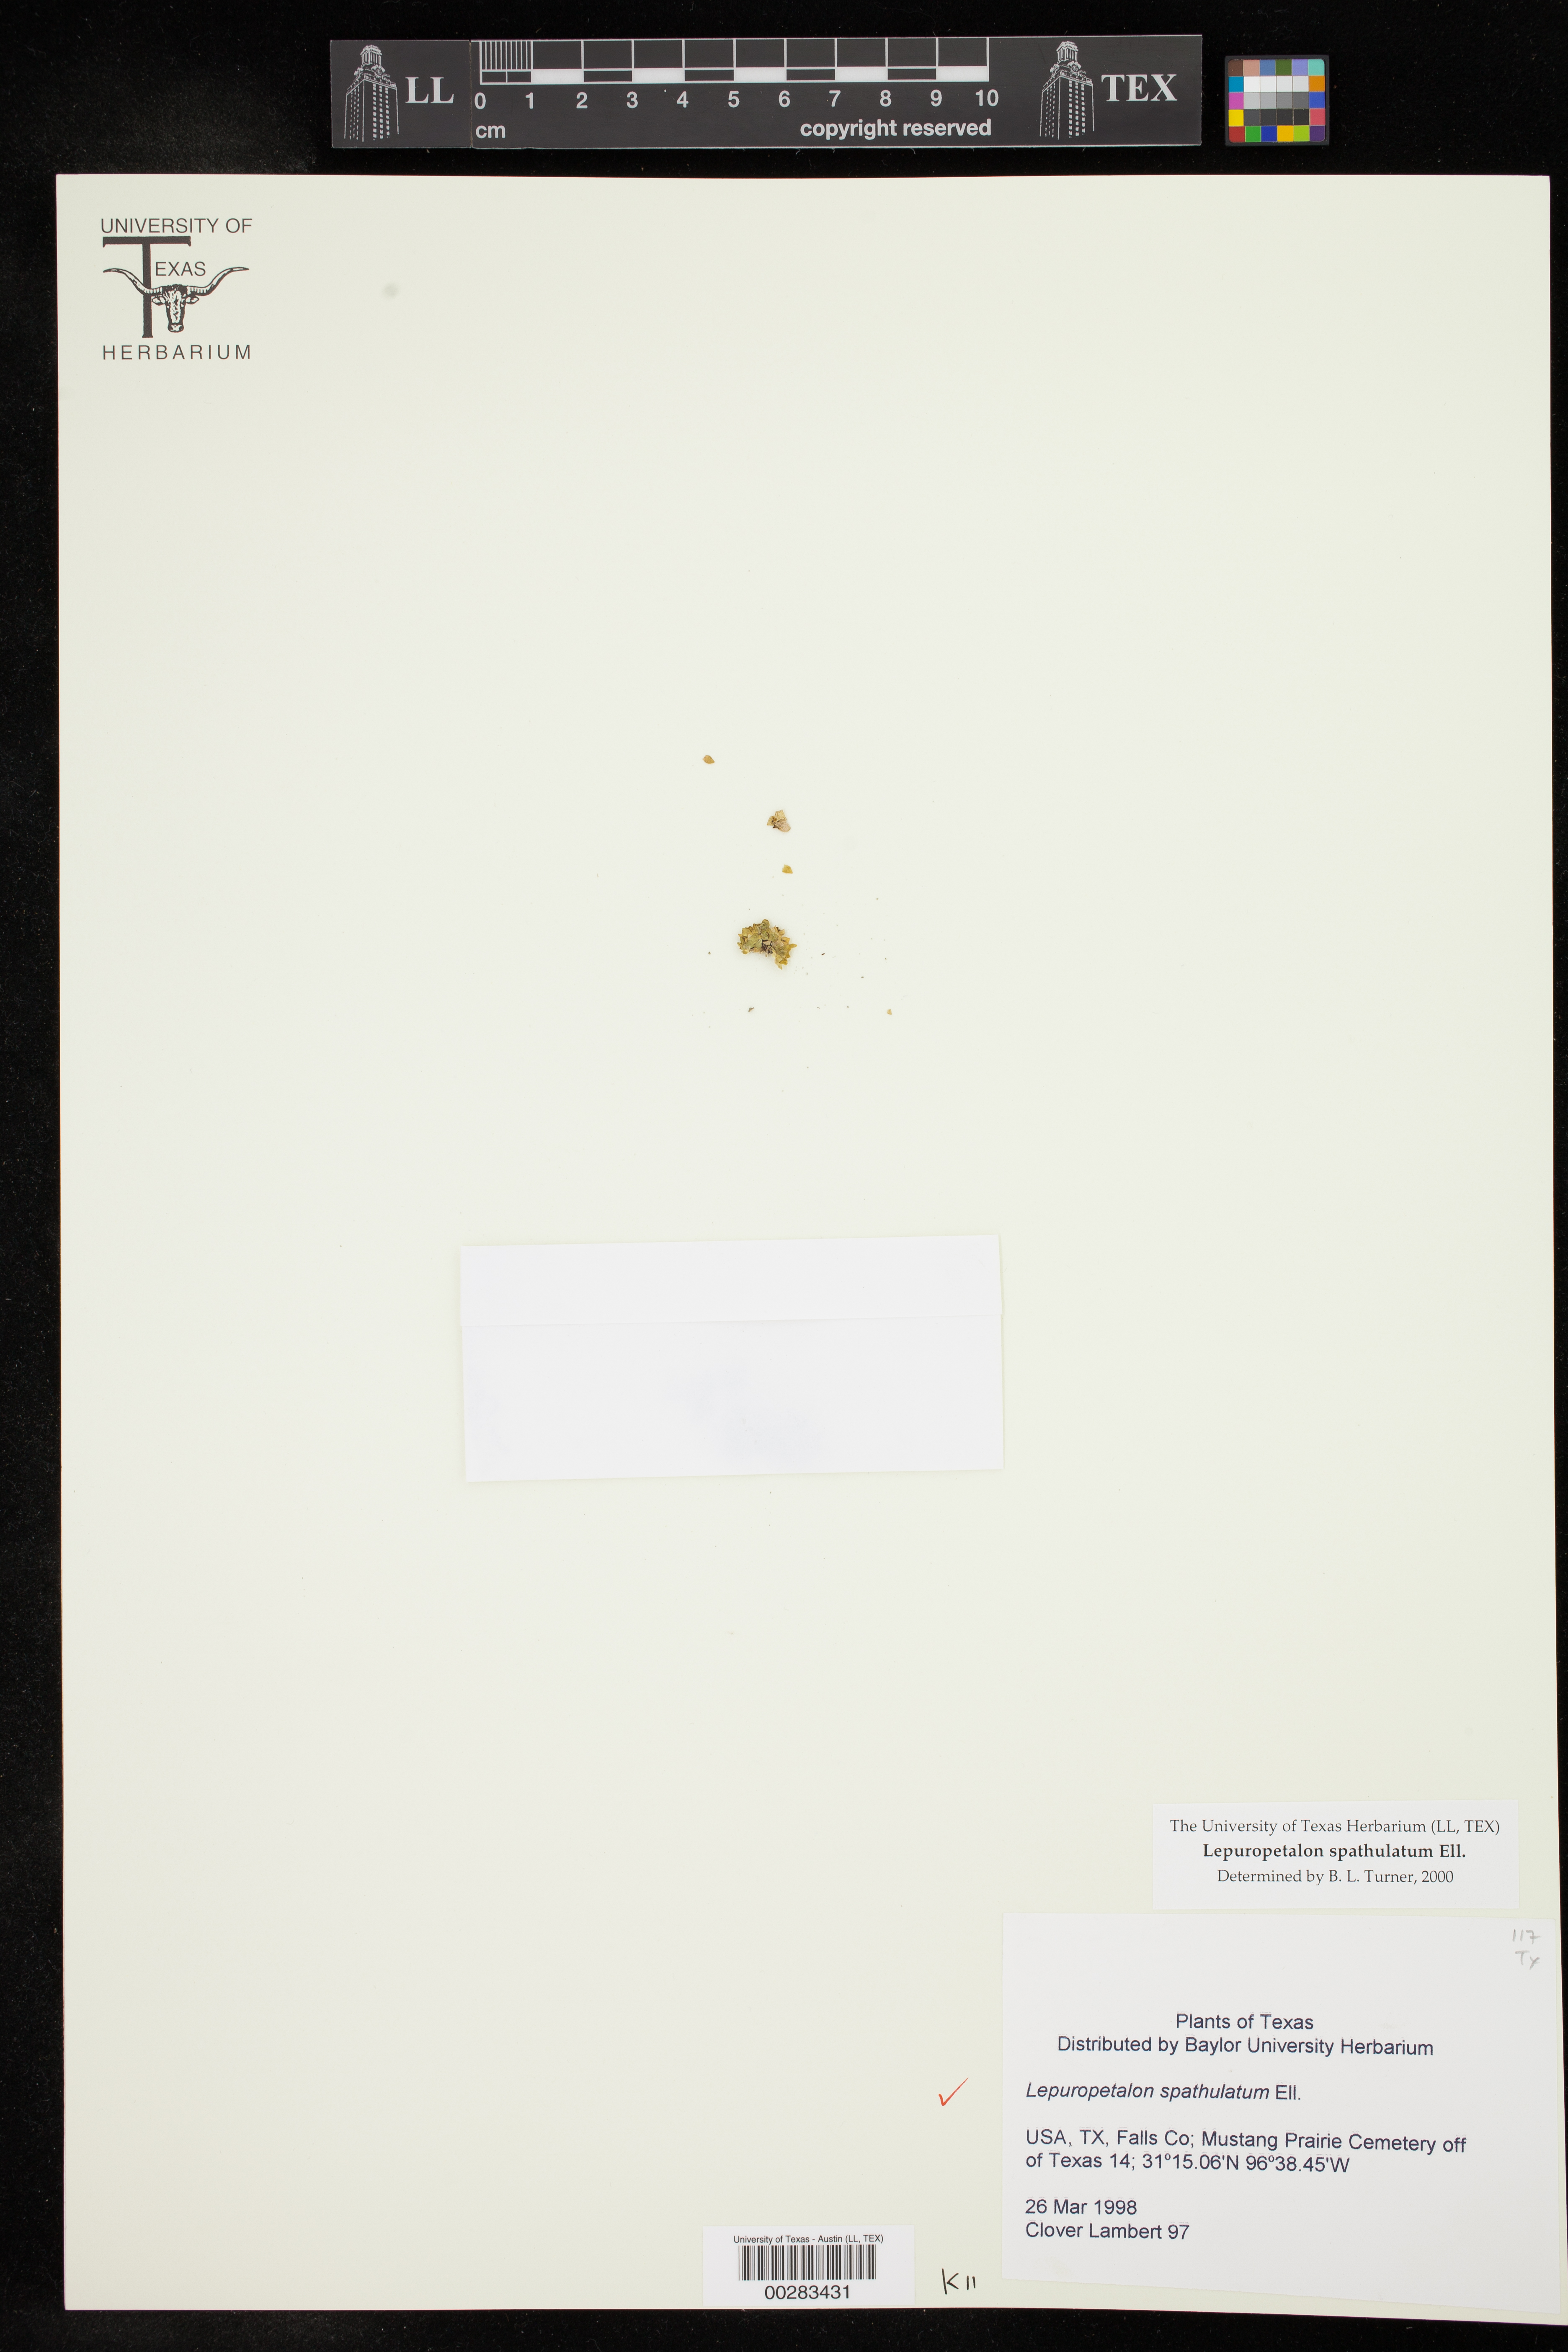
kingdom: Plantae
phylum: Tracheophyta
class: Magnoliopsida
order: Celastrales
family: Parnassiaceae
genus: Lepuropetalon
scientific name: Lepuropetalon spathulatum
